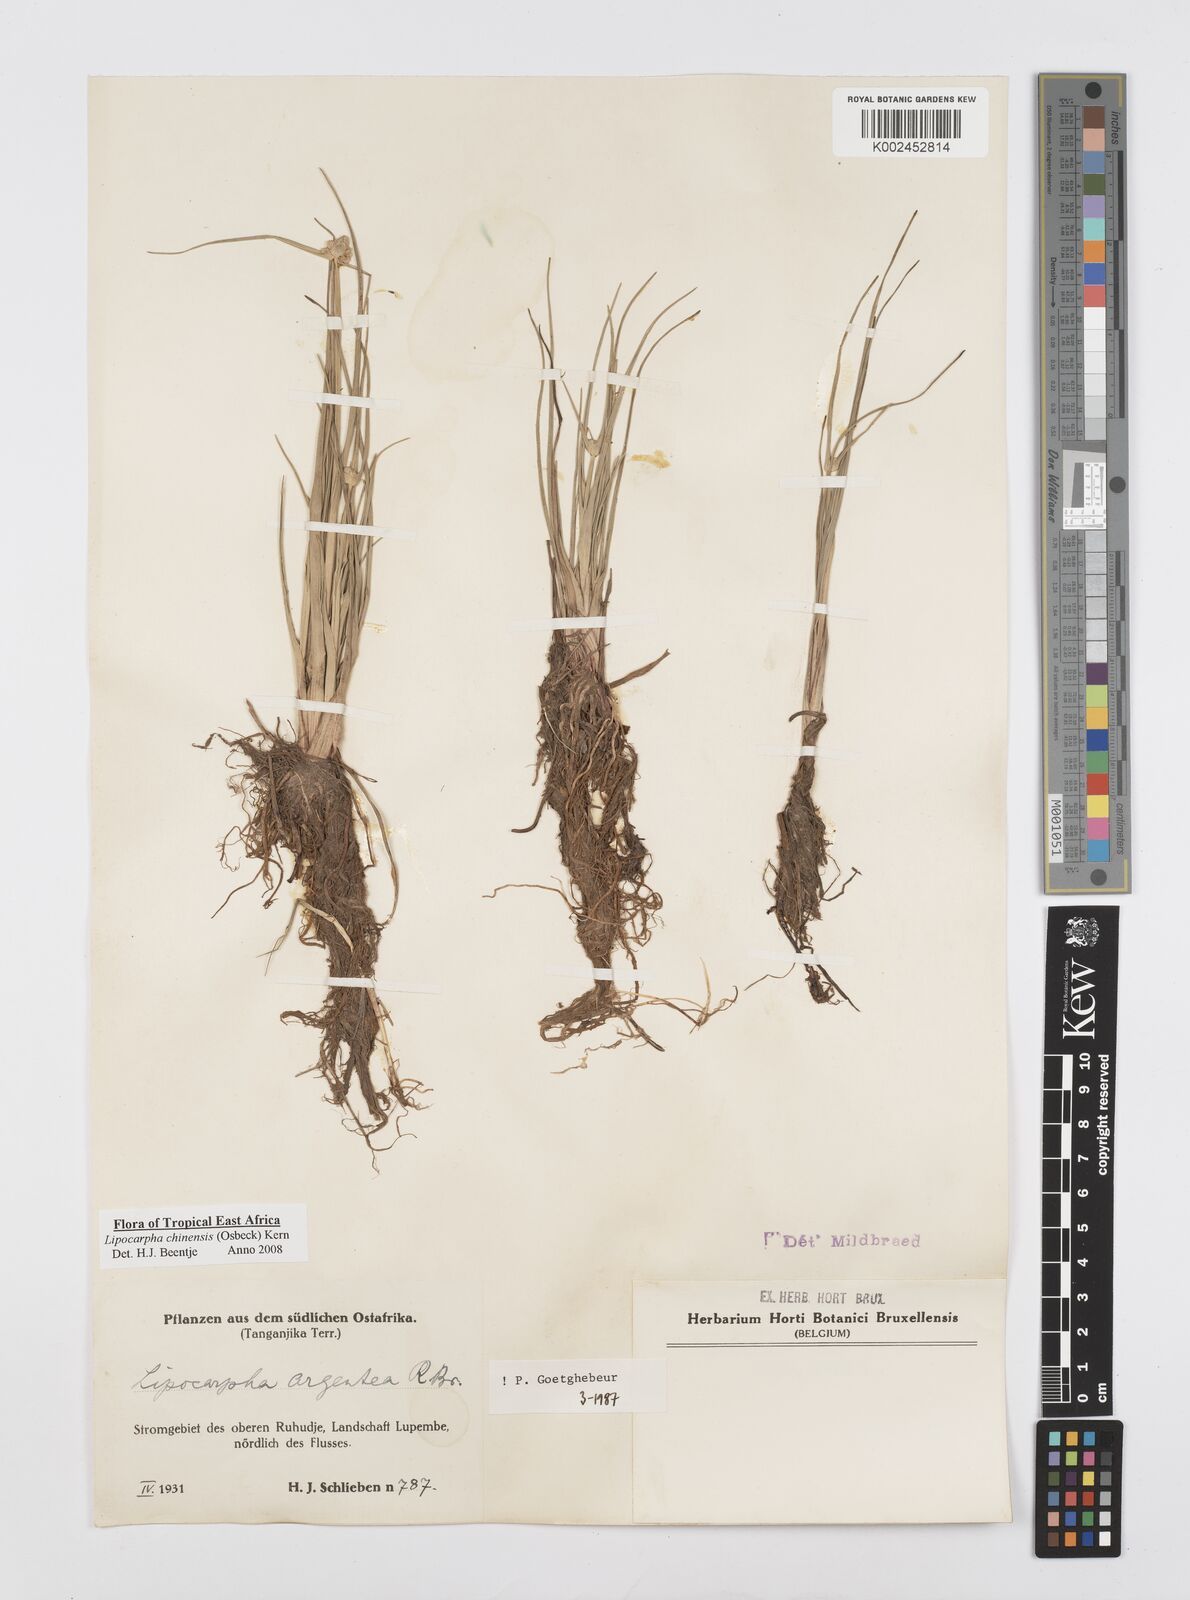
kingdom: Plantae
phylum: Tracheophyta
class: Liliopsida
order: Poales
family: Cyperaceae
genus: Cyperus
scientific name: Cyperus albescens
